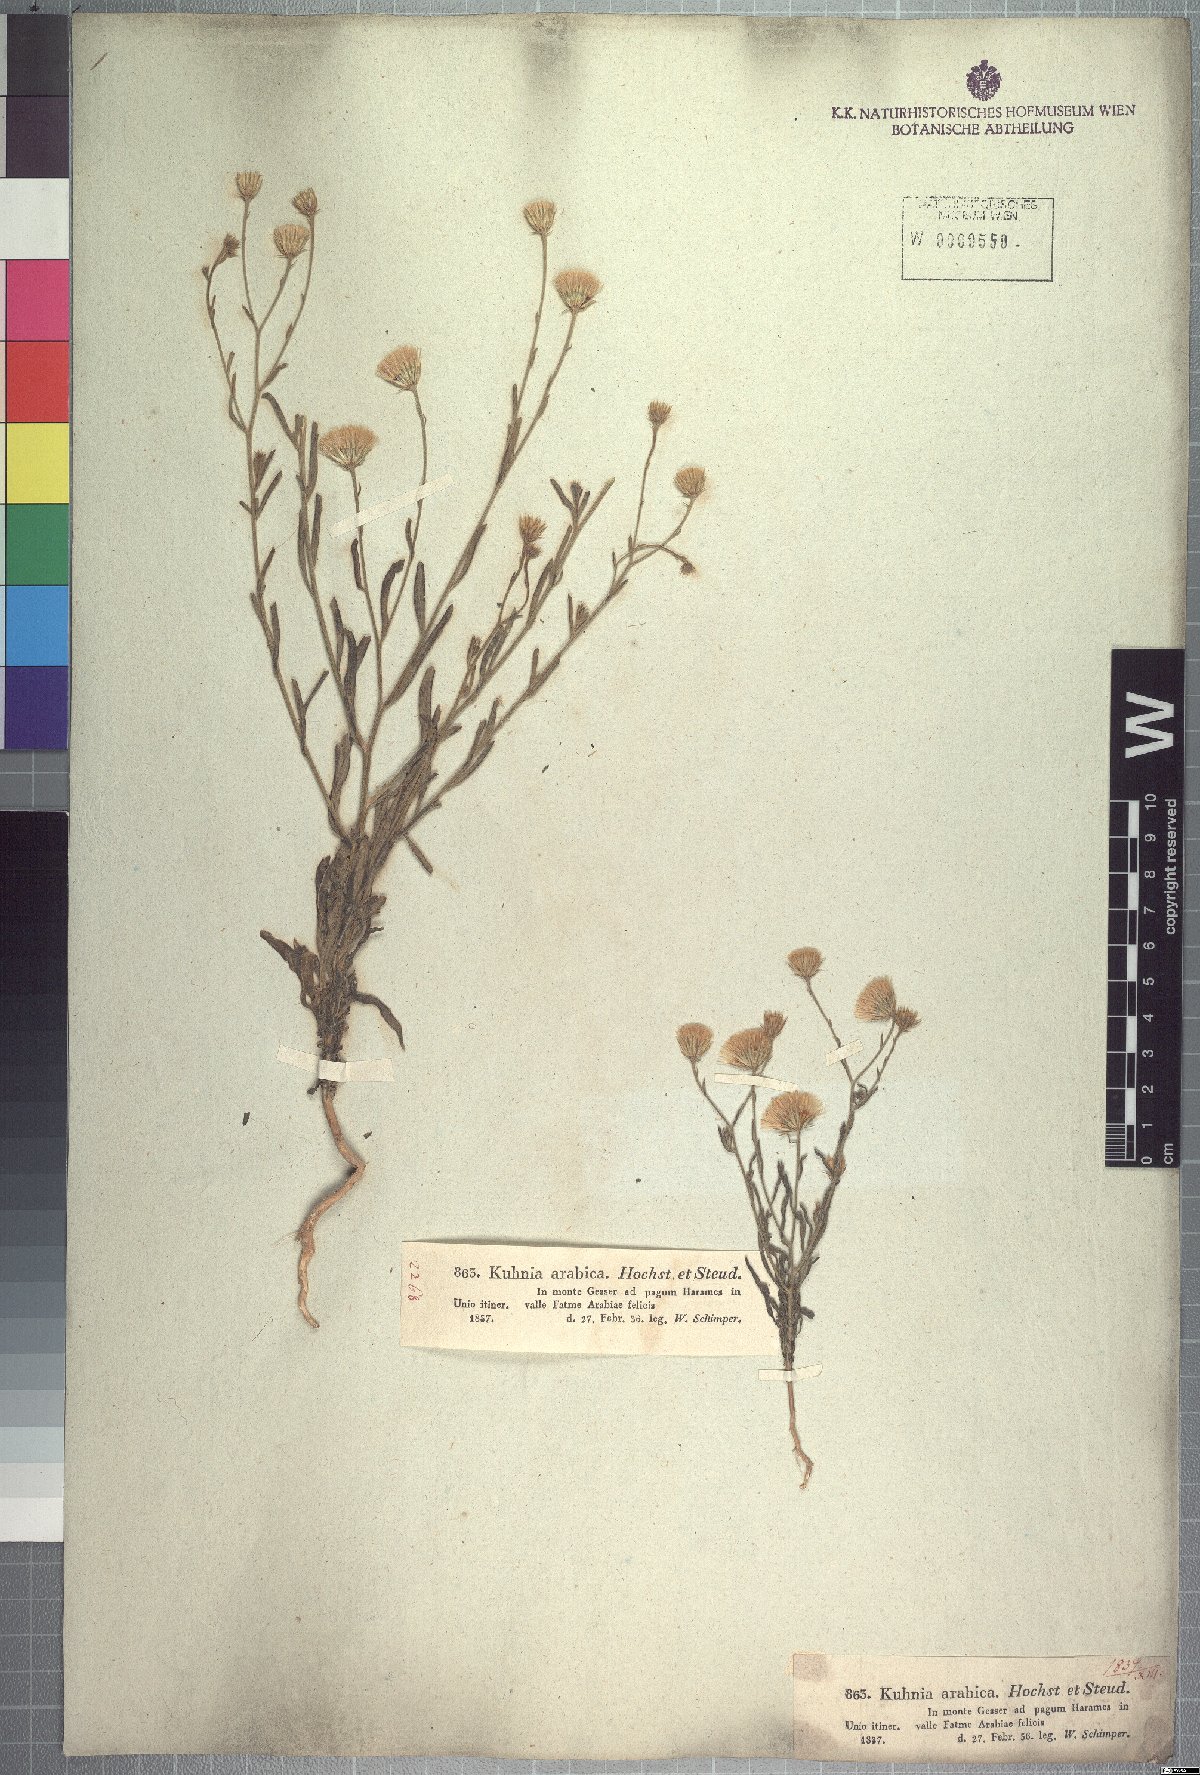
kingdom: Plantae
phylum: Tracheophyta
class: Magnoliopsida
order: Asterales
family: Asteraceae
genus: Pegolettia
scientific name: Pegolettia senegalensis
